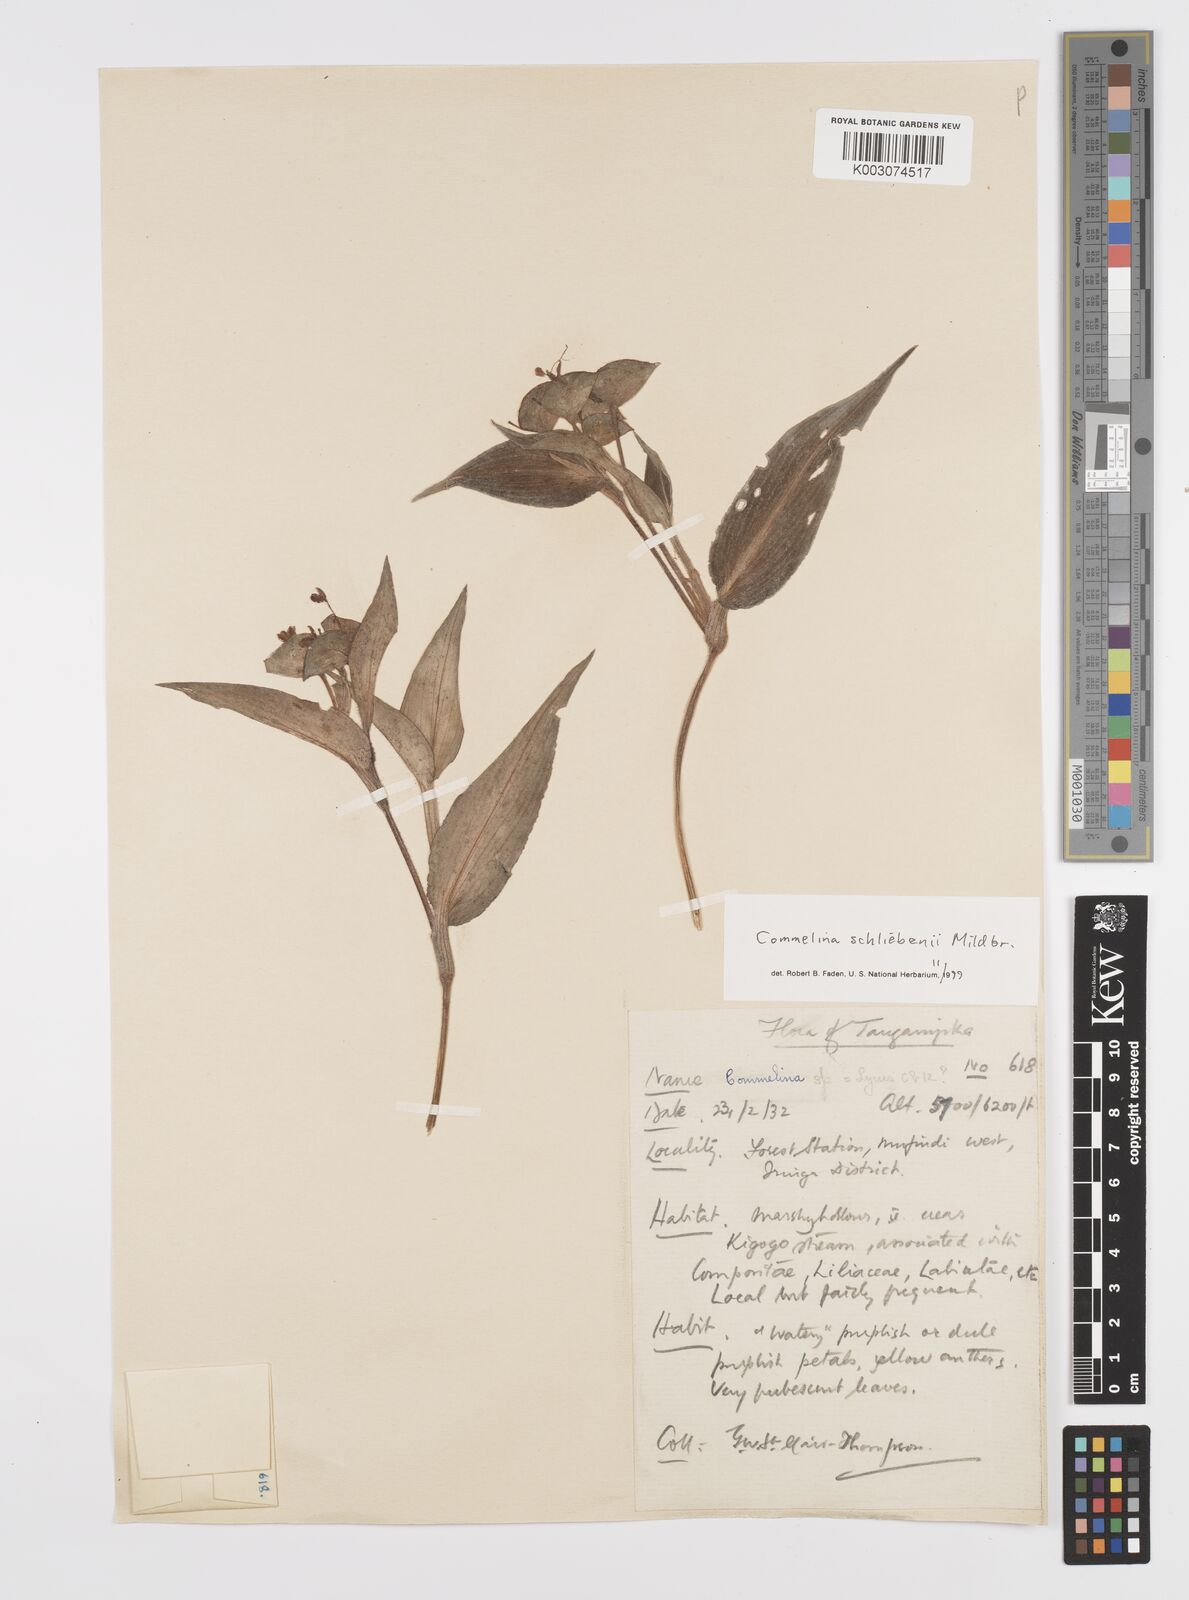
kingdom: Plantae
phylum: Tracheophyta
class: Liliopsida
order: Commelinales
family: Commelinaceae
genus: Commelina
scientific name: Commelina schliebenii
